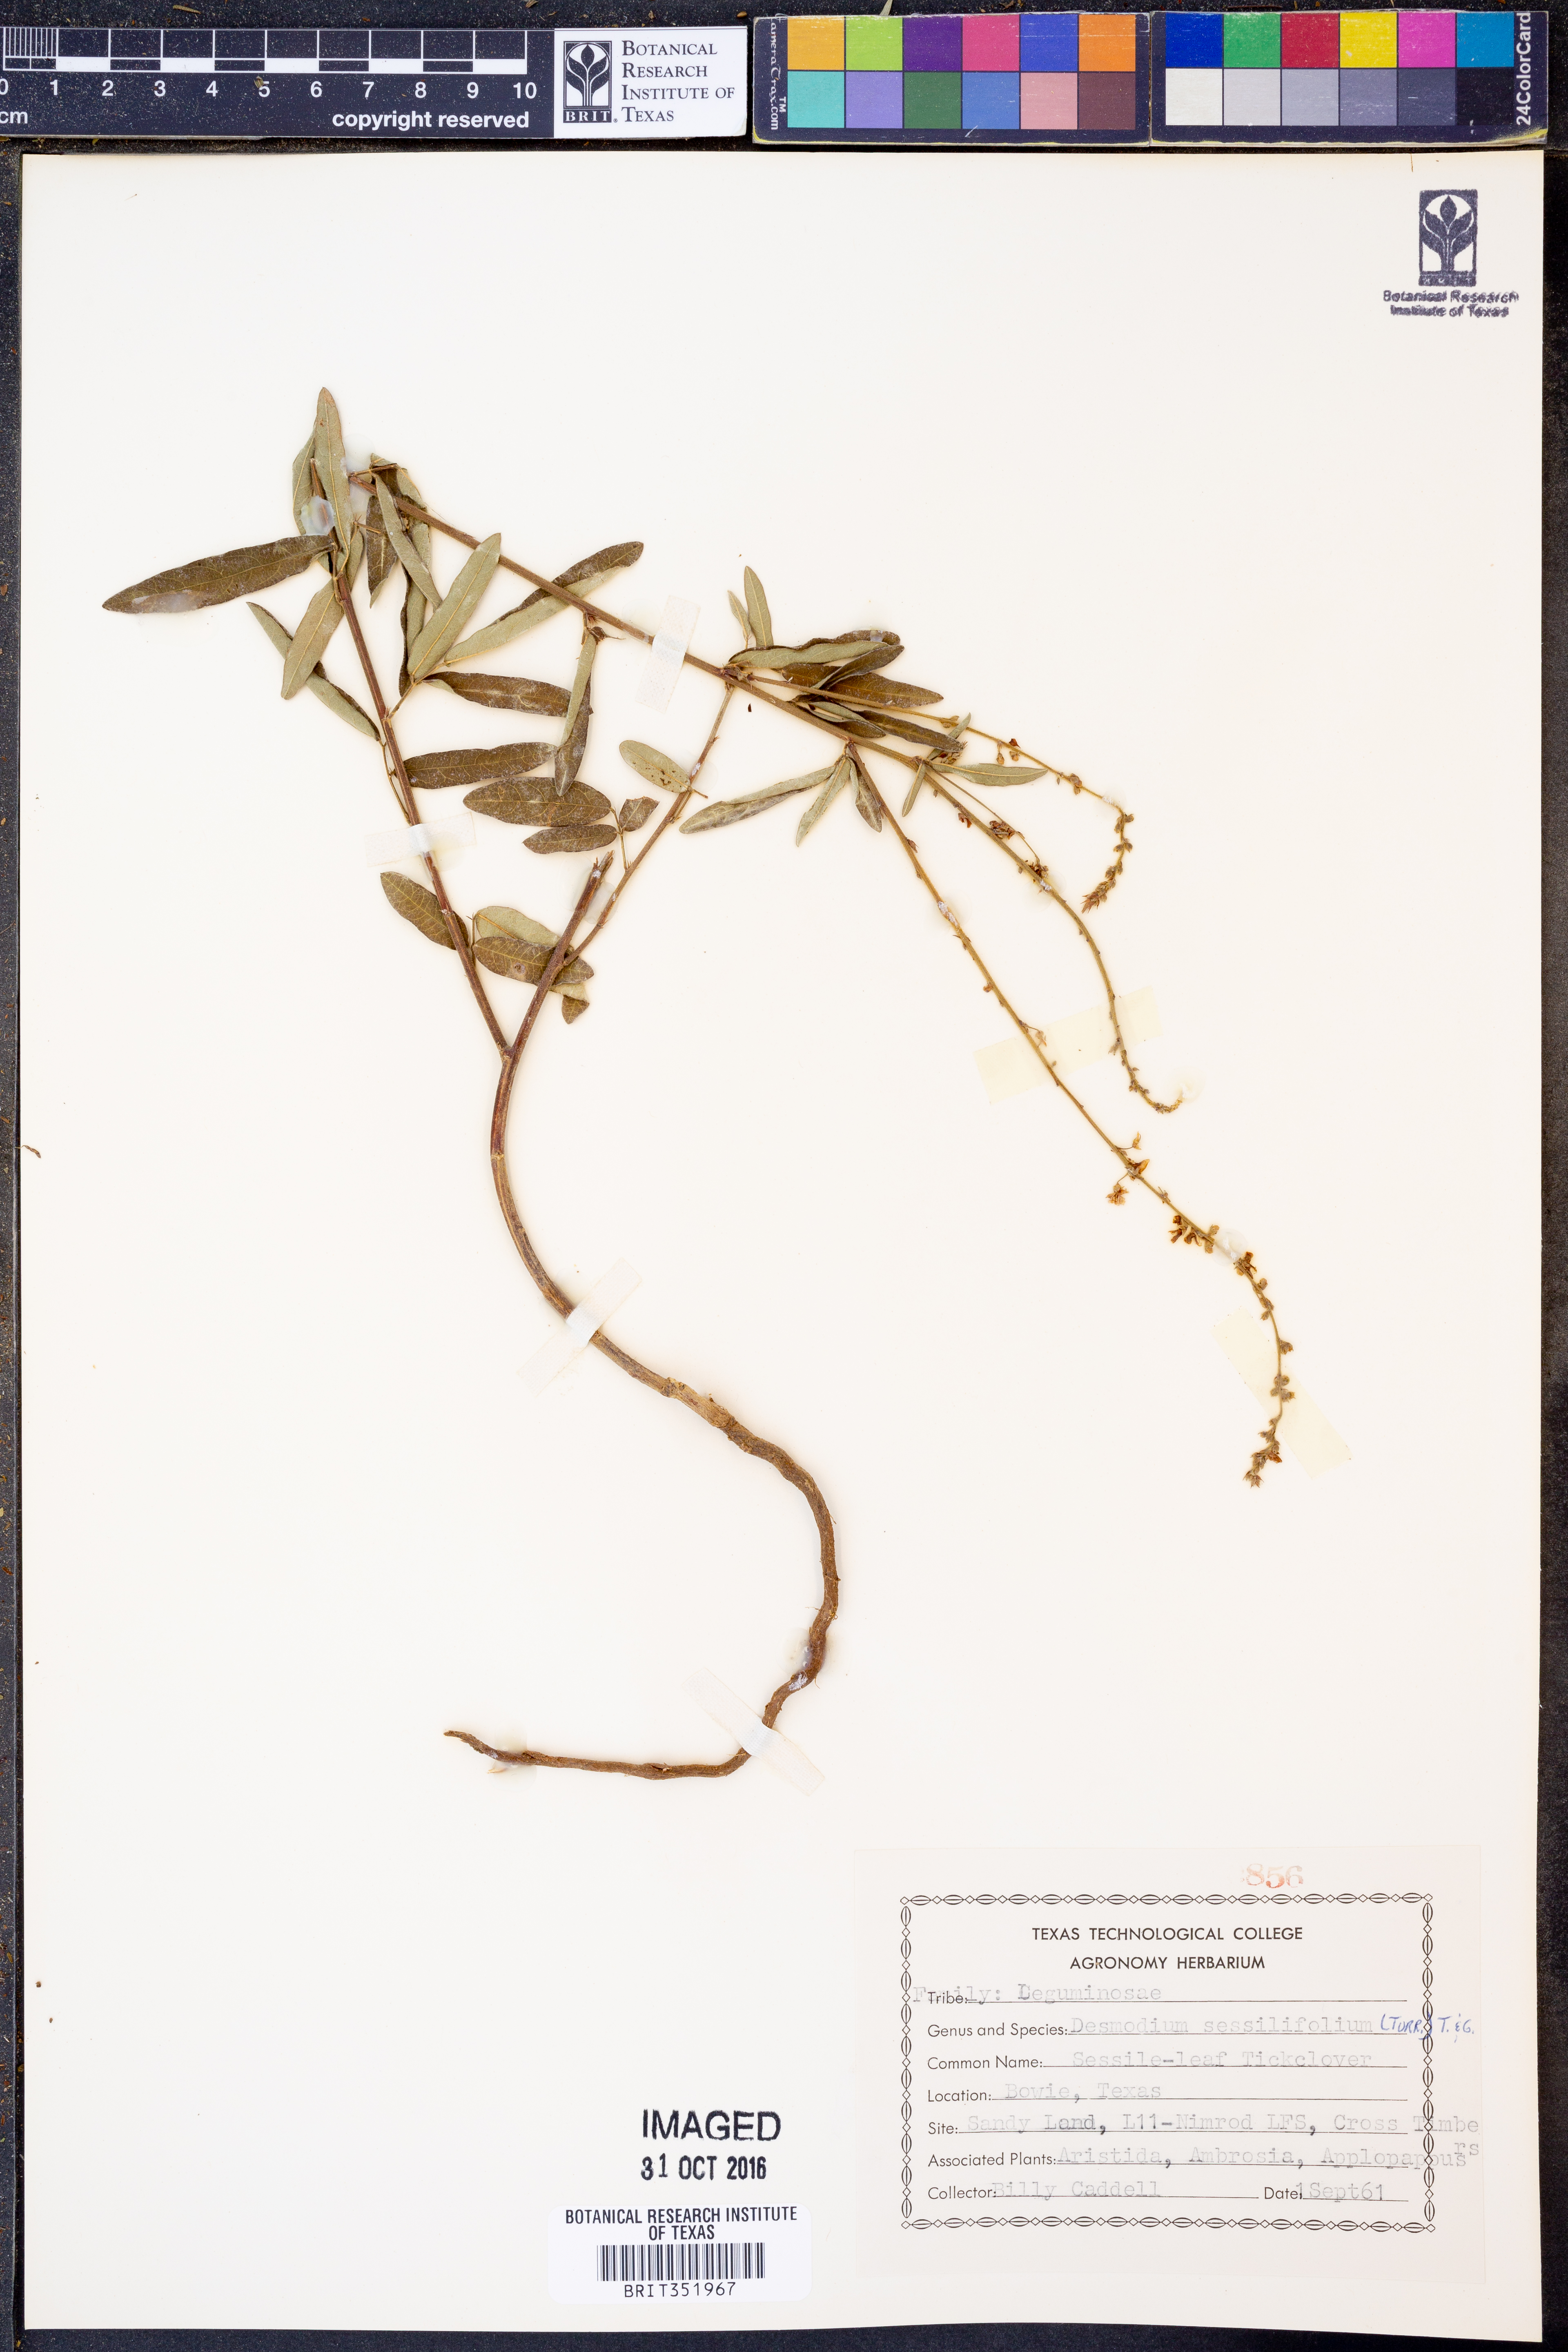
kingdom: Plantae
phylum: Tracheophyta
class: Magnoliopsida
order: Fabales
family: Fabaceae
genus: Desmodium
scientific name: Desmodium sessilifolium
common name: Sessile tick-clover
